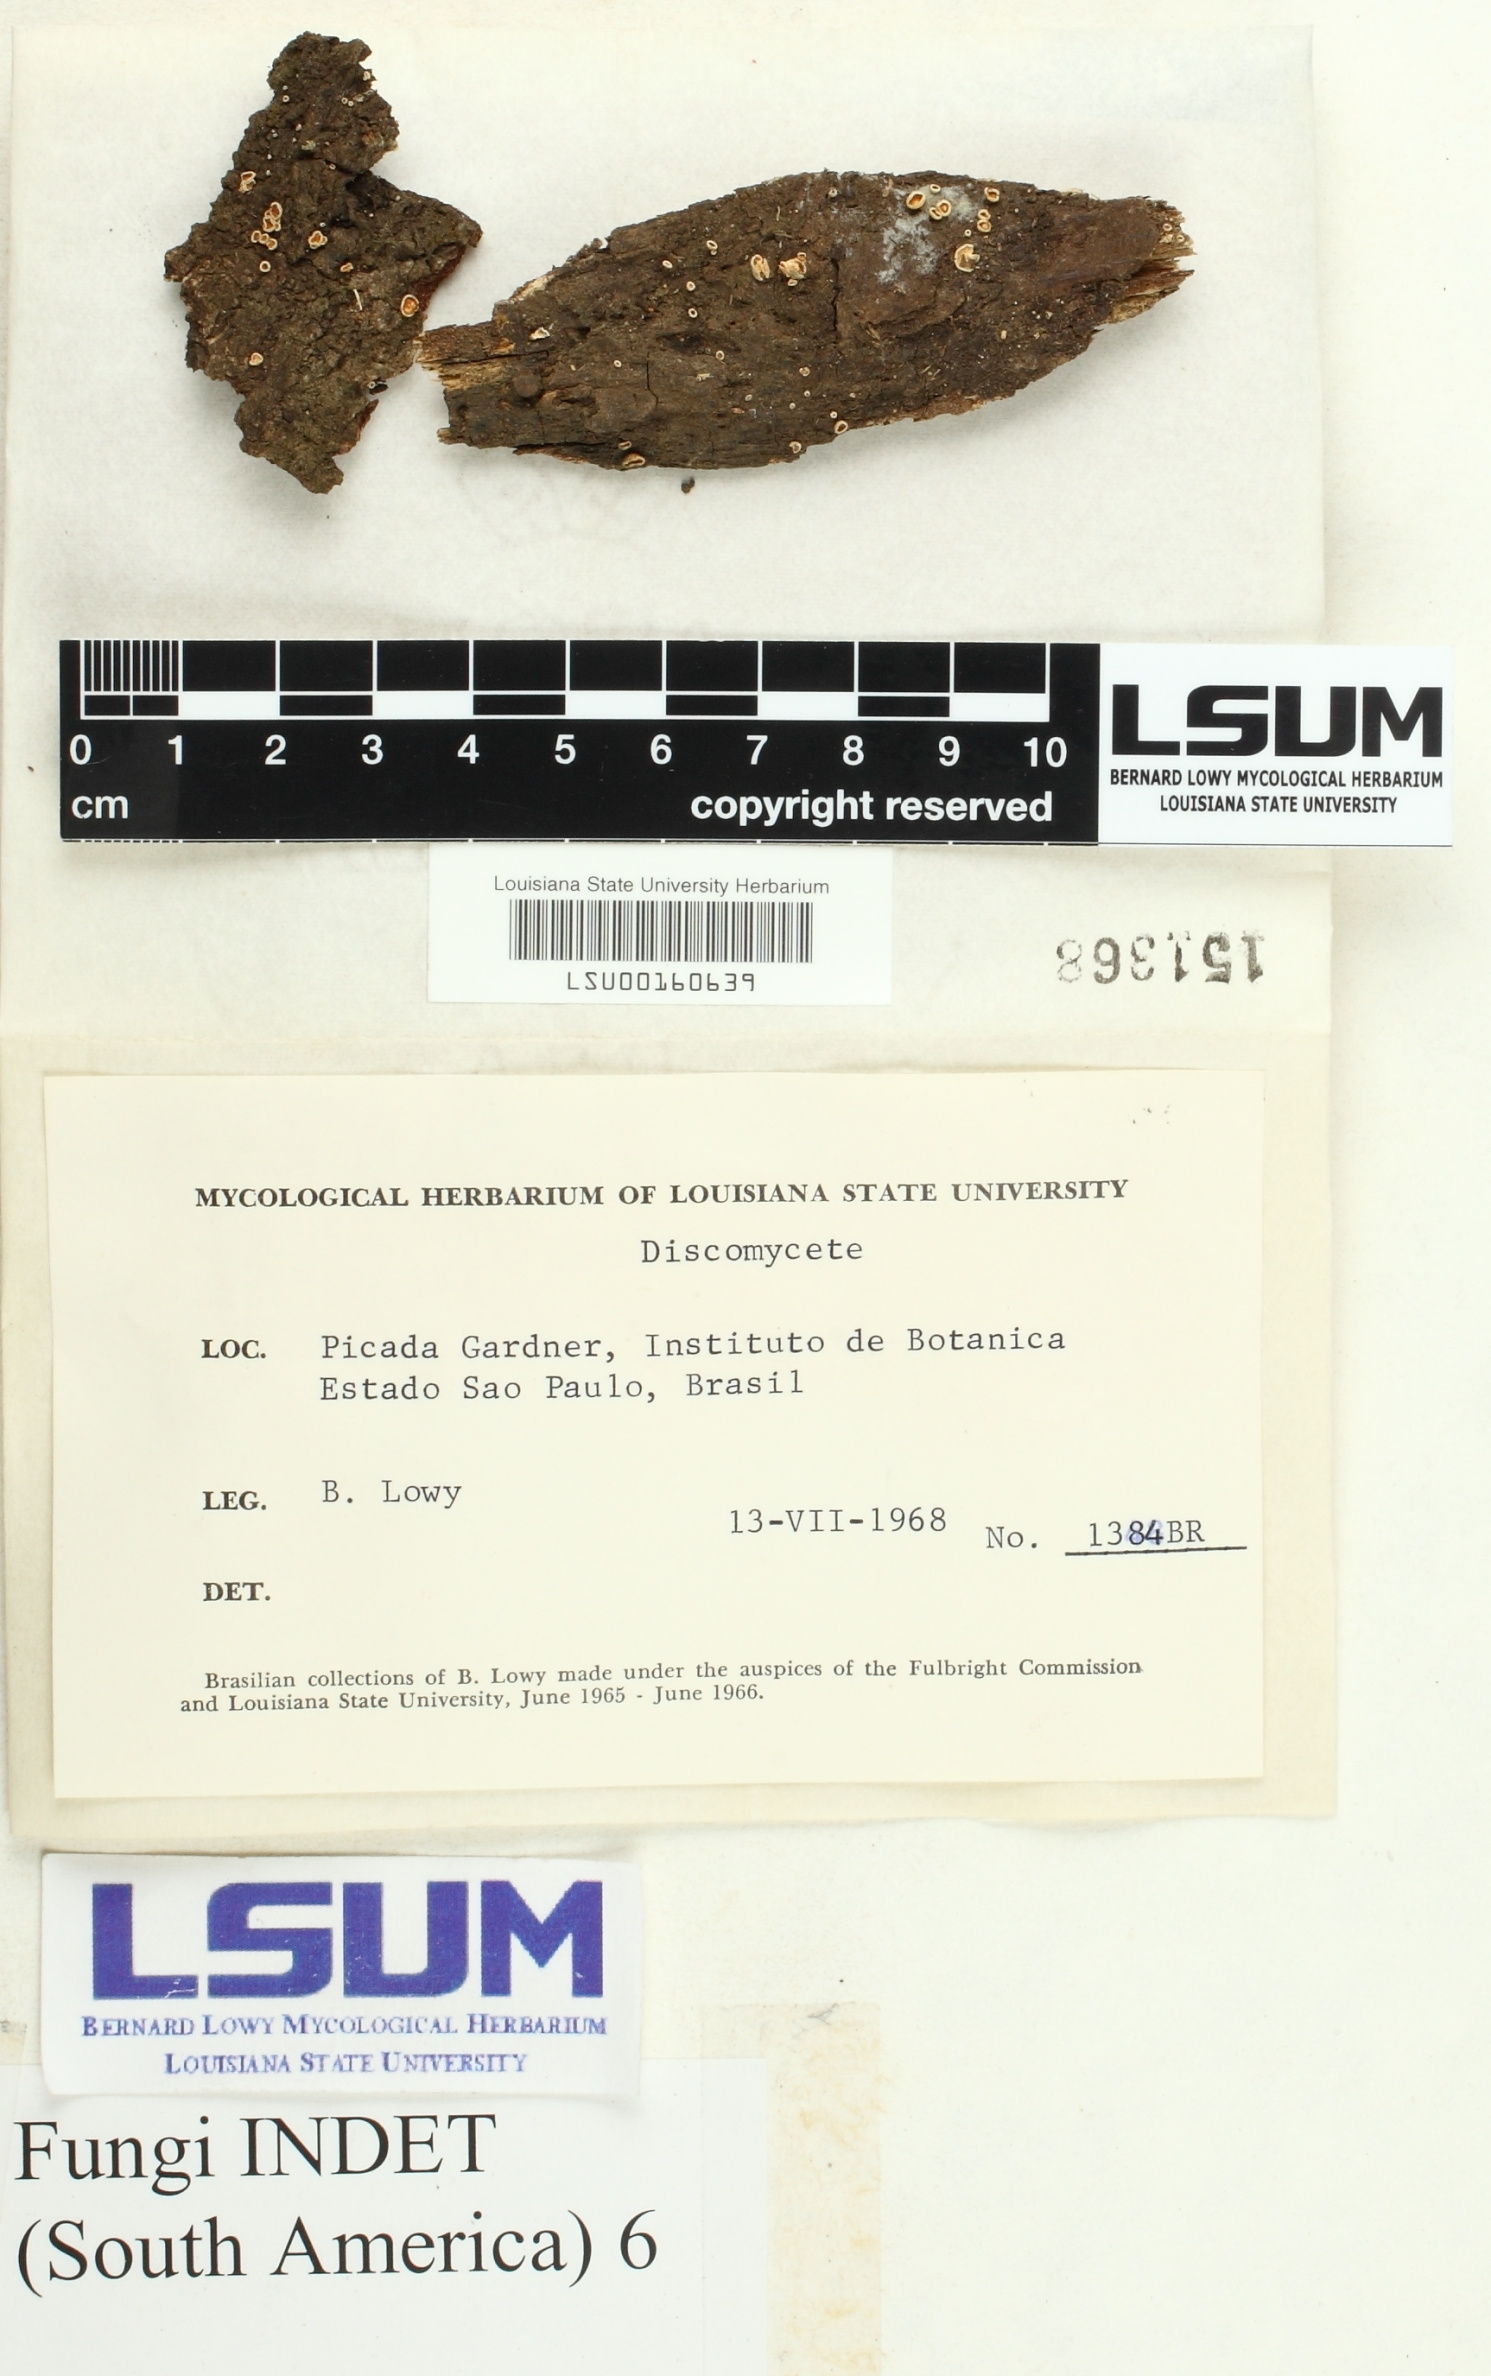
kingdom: Fungi
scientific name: Fungi
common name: Fungi
